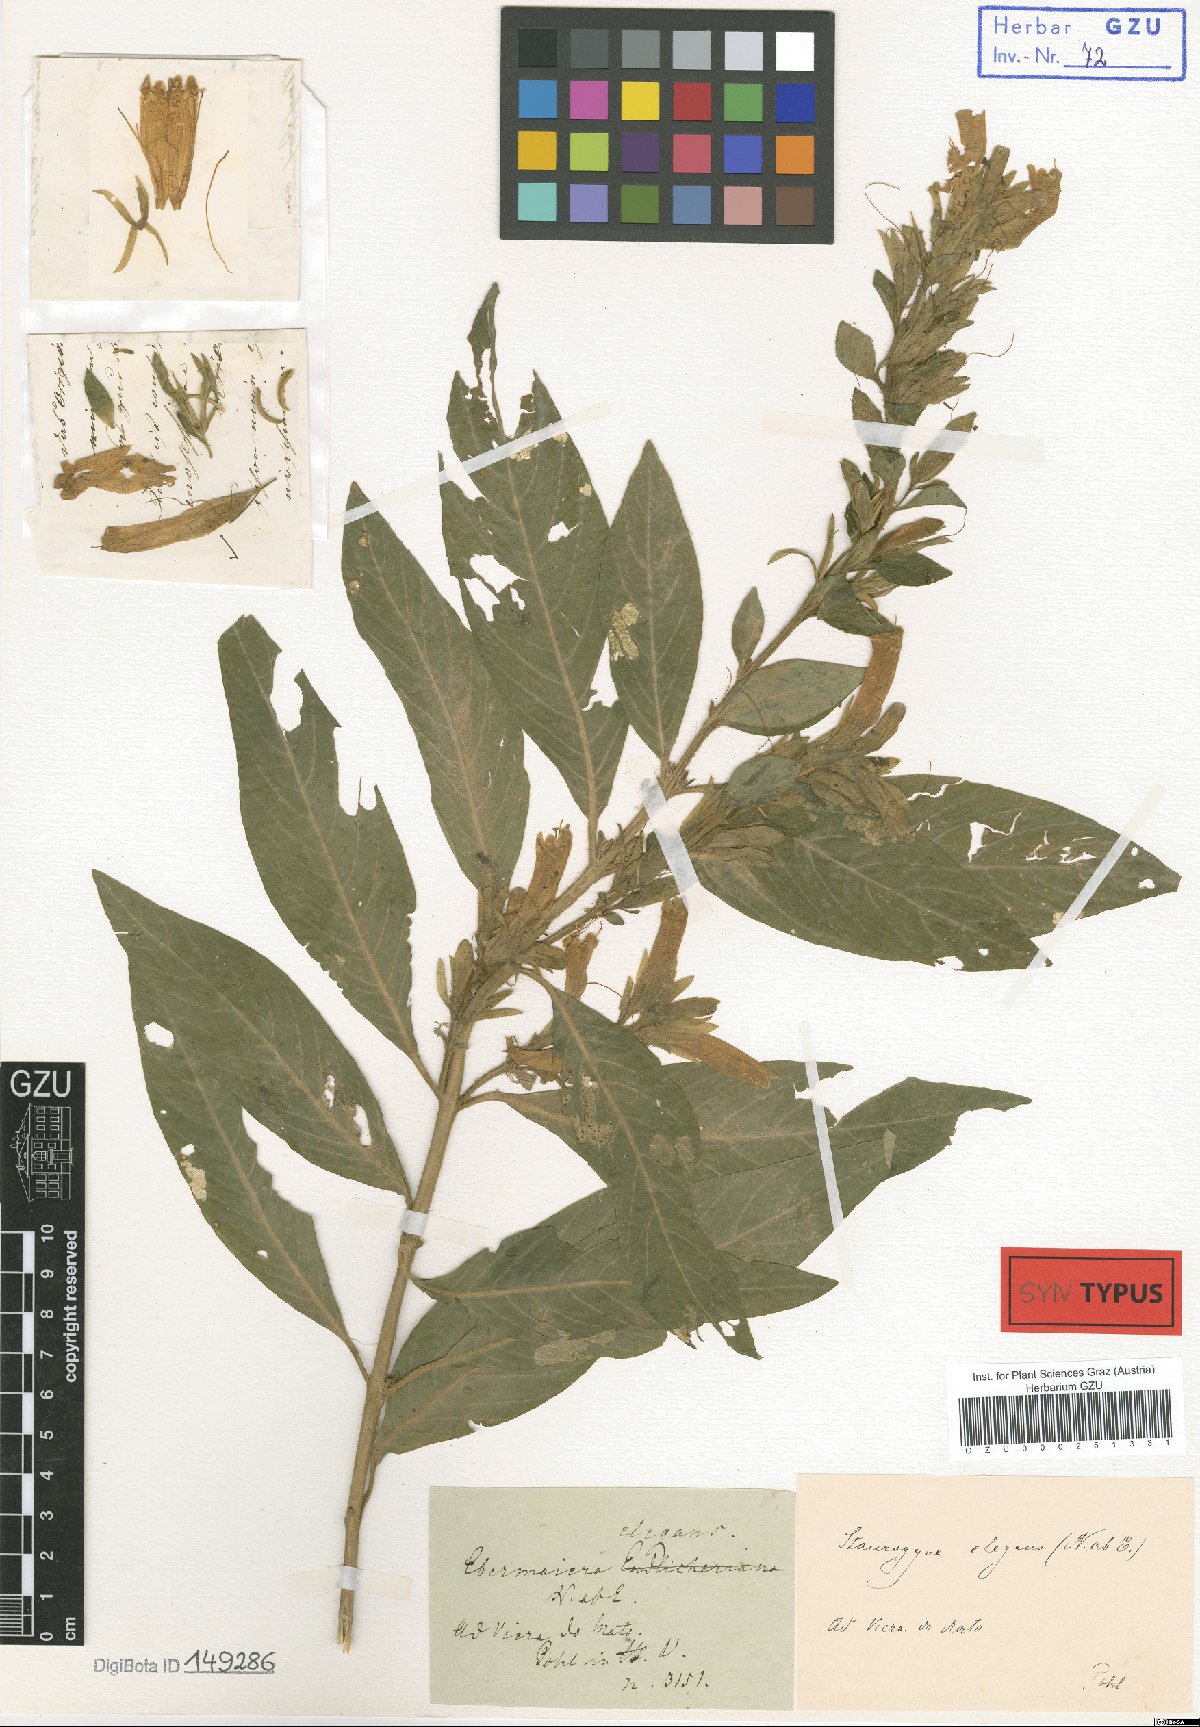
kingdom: Plantae
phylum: Tracheophyta
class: Magnoliopsida
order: Lamiales
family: Acanthaceae
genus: Staurogyne
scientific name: Staurogyne elegans
